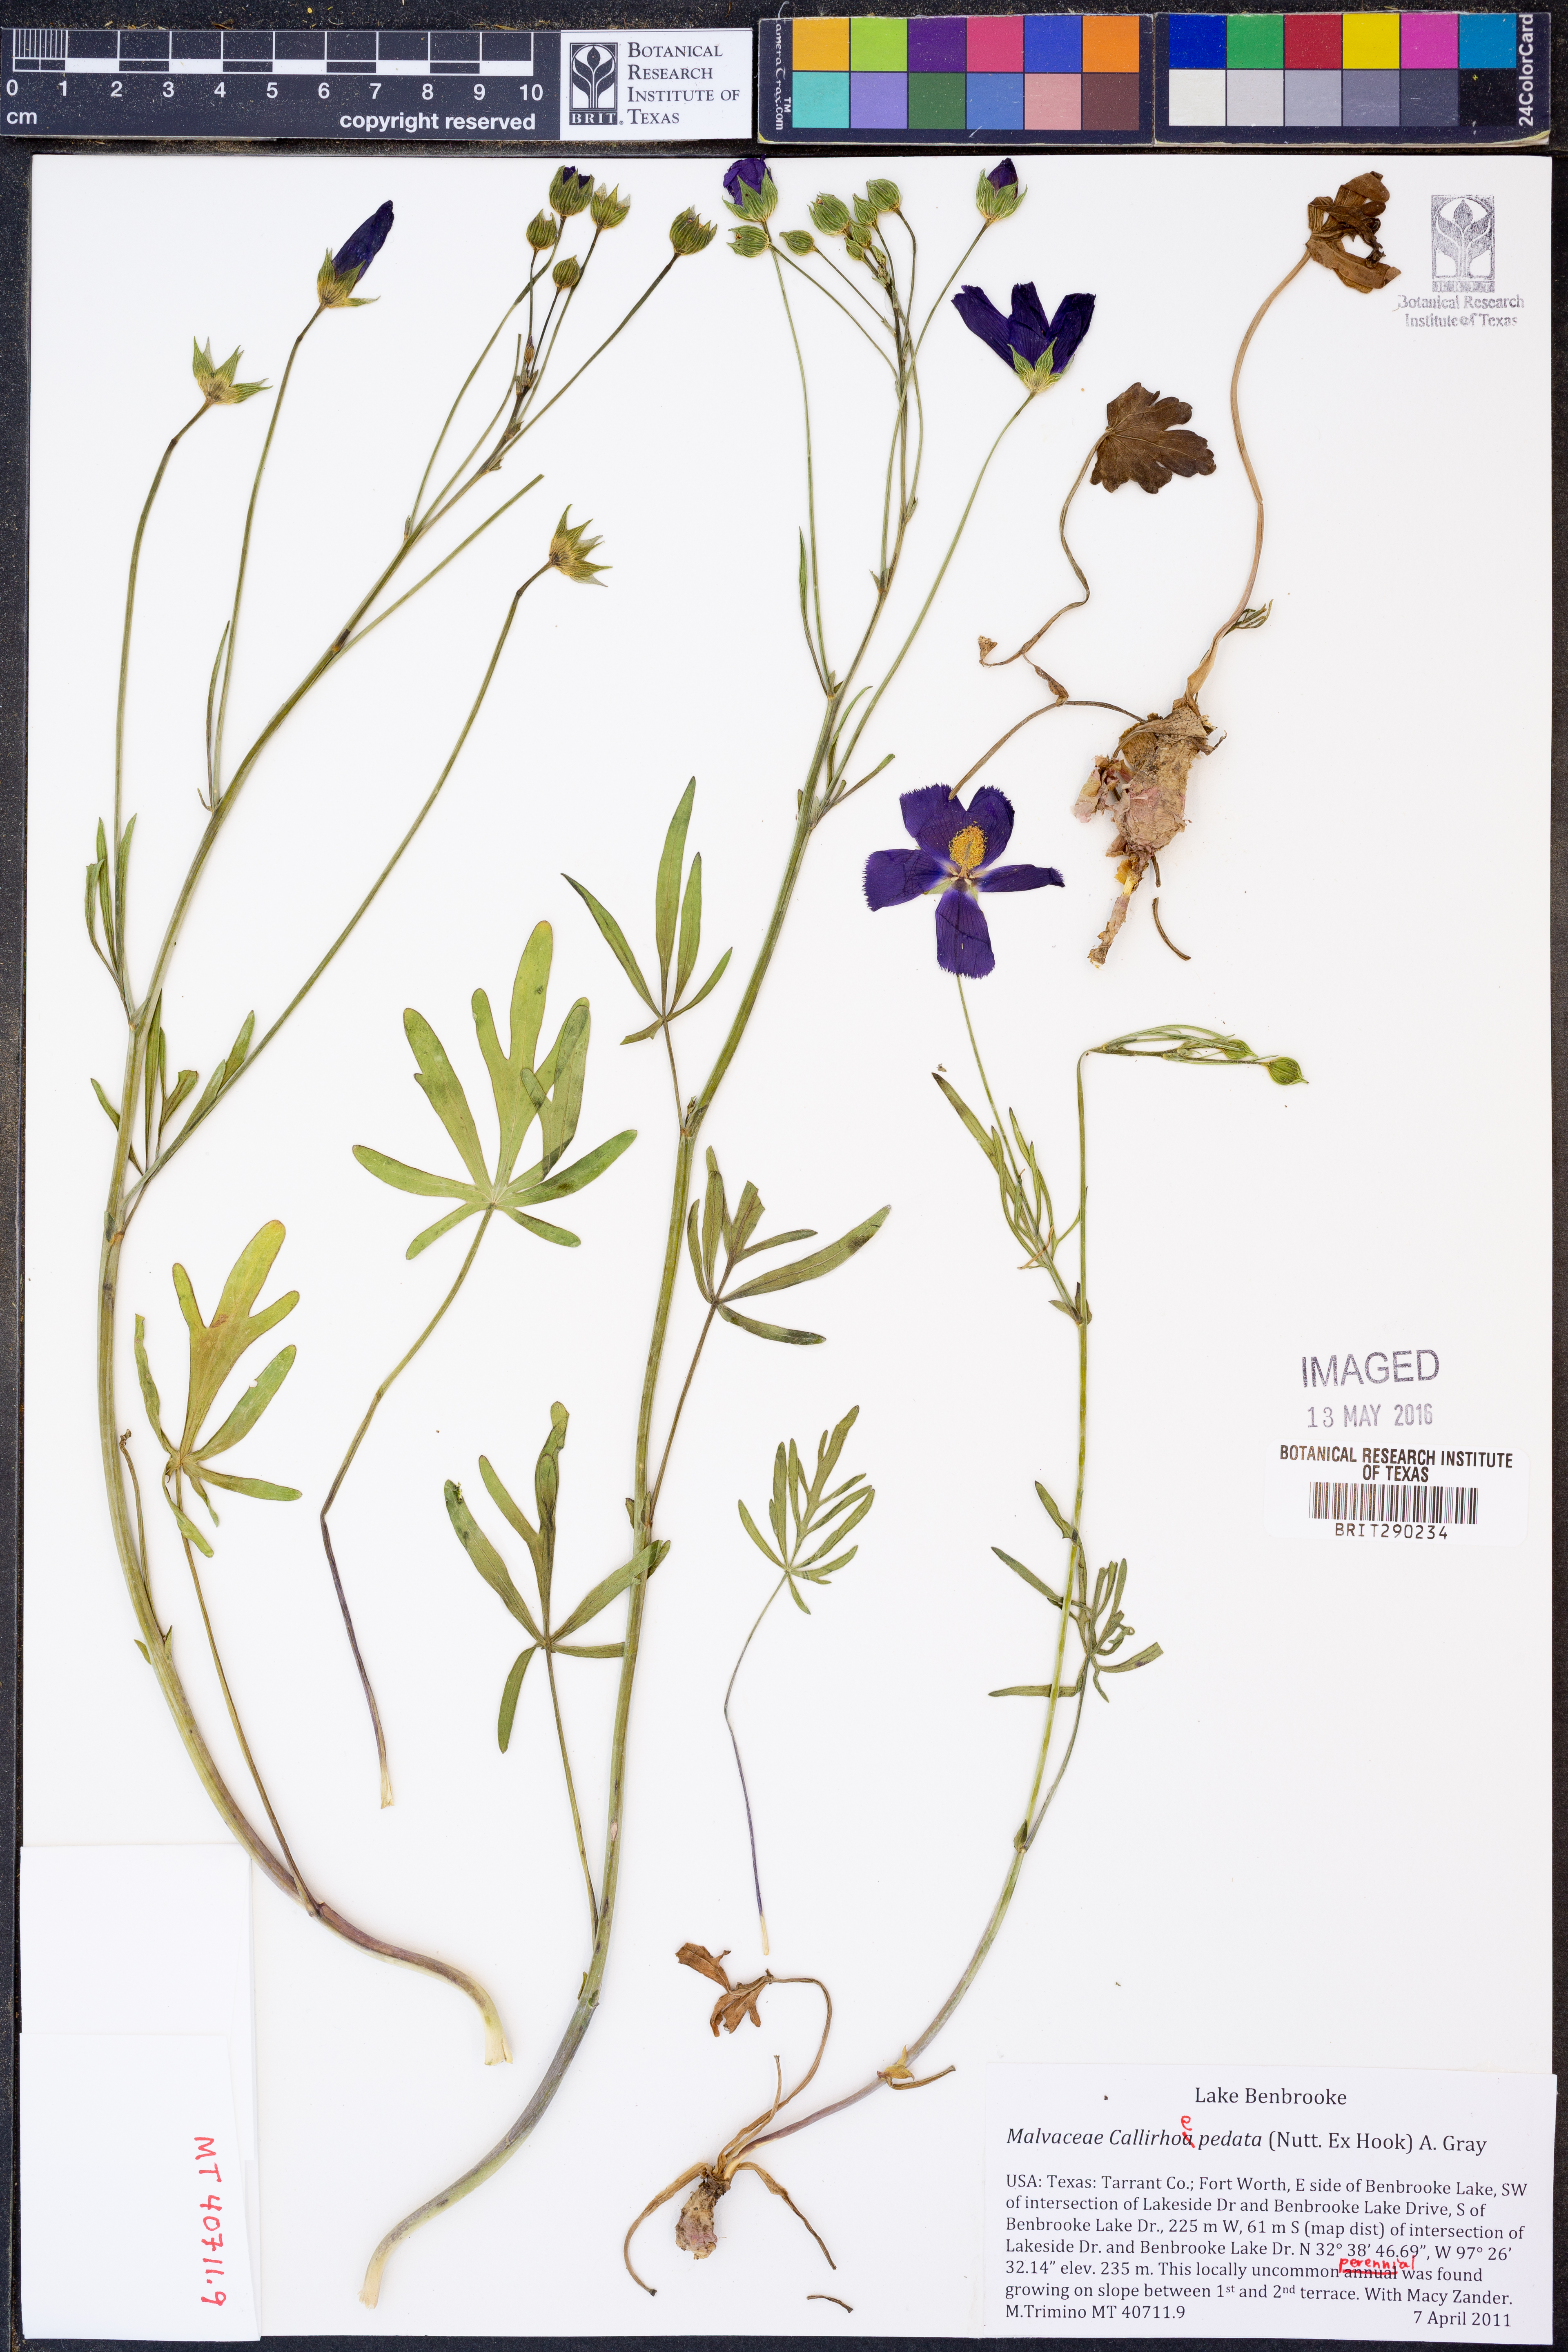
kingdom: Plantae
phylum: Tracheophyta
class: Magnoliopsida
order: Malvales
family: Malvaceae
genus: Callirhoe
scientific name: Callirhoe pedata
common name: Finger poppy-mallow
